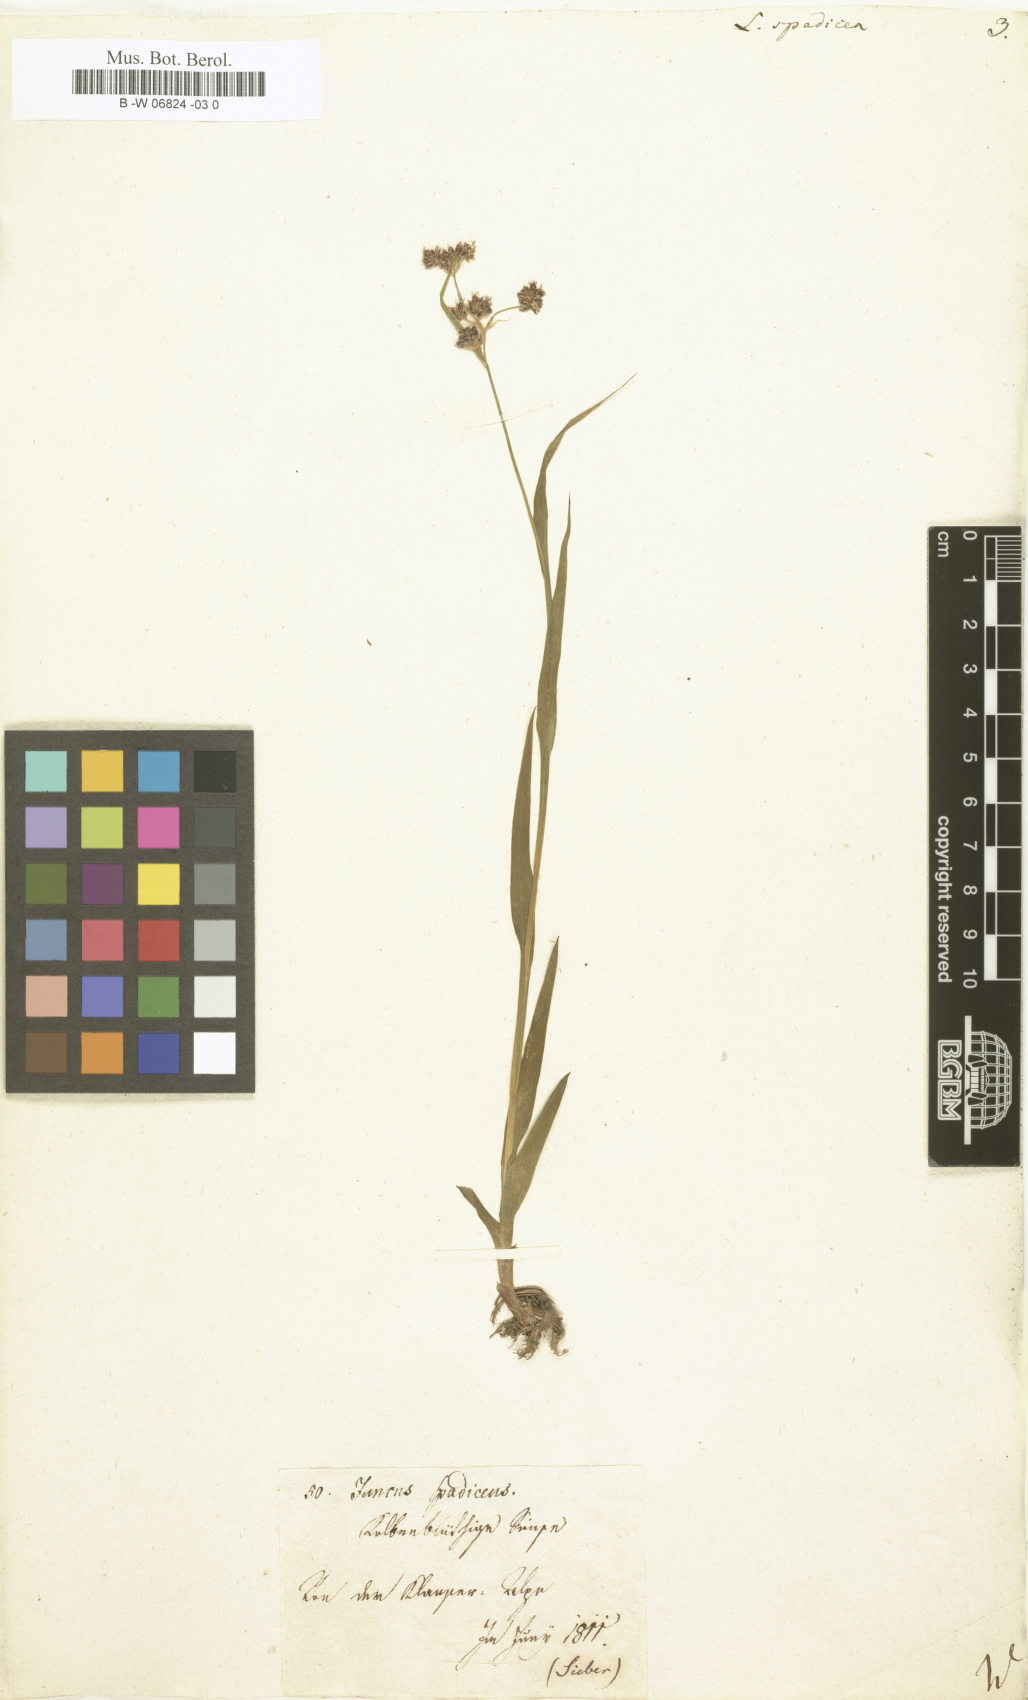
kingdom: Plantae
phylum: Tracheophyta
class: Liliopsida
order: Poales
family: Juncaceae
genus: Luzula
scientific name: Luzula
